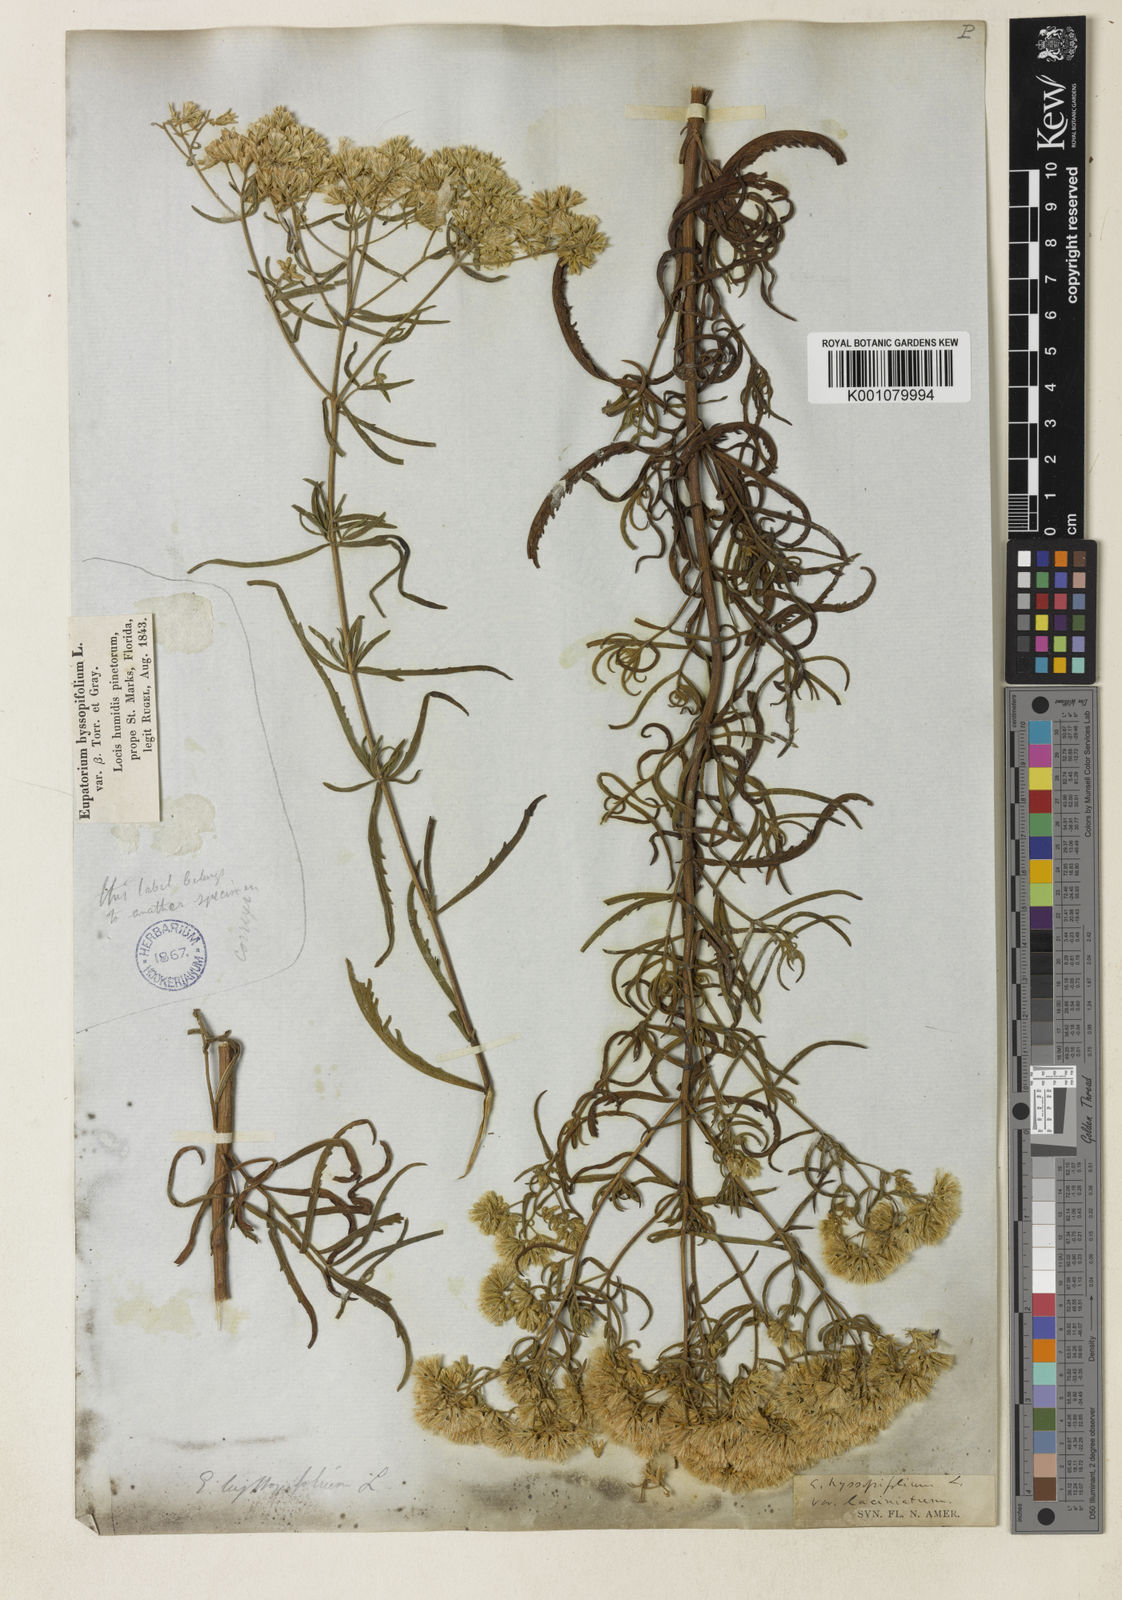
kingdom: Plantae
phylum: Tracheophyta
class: Magnoliopsida
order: Asterales
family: Asteraceae
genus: Eupatorium
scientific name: Eupatorium torreyanum
